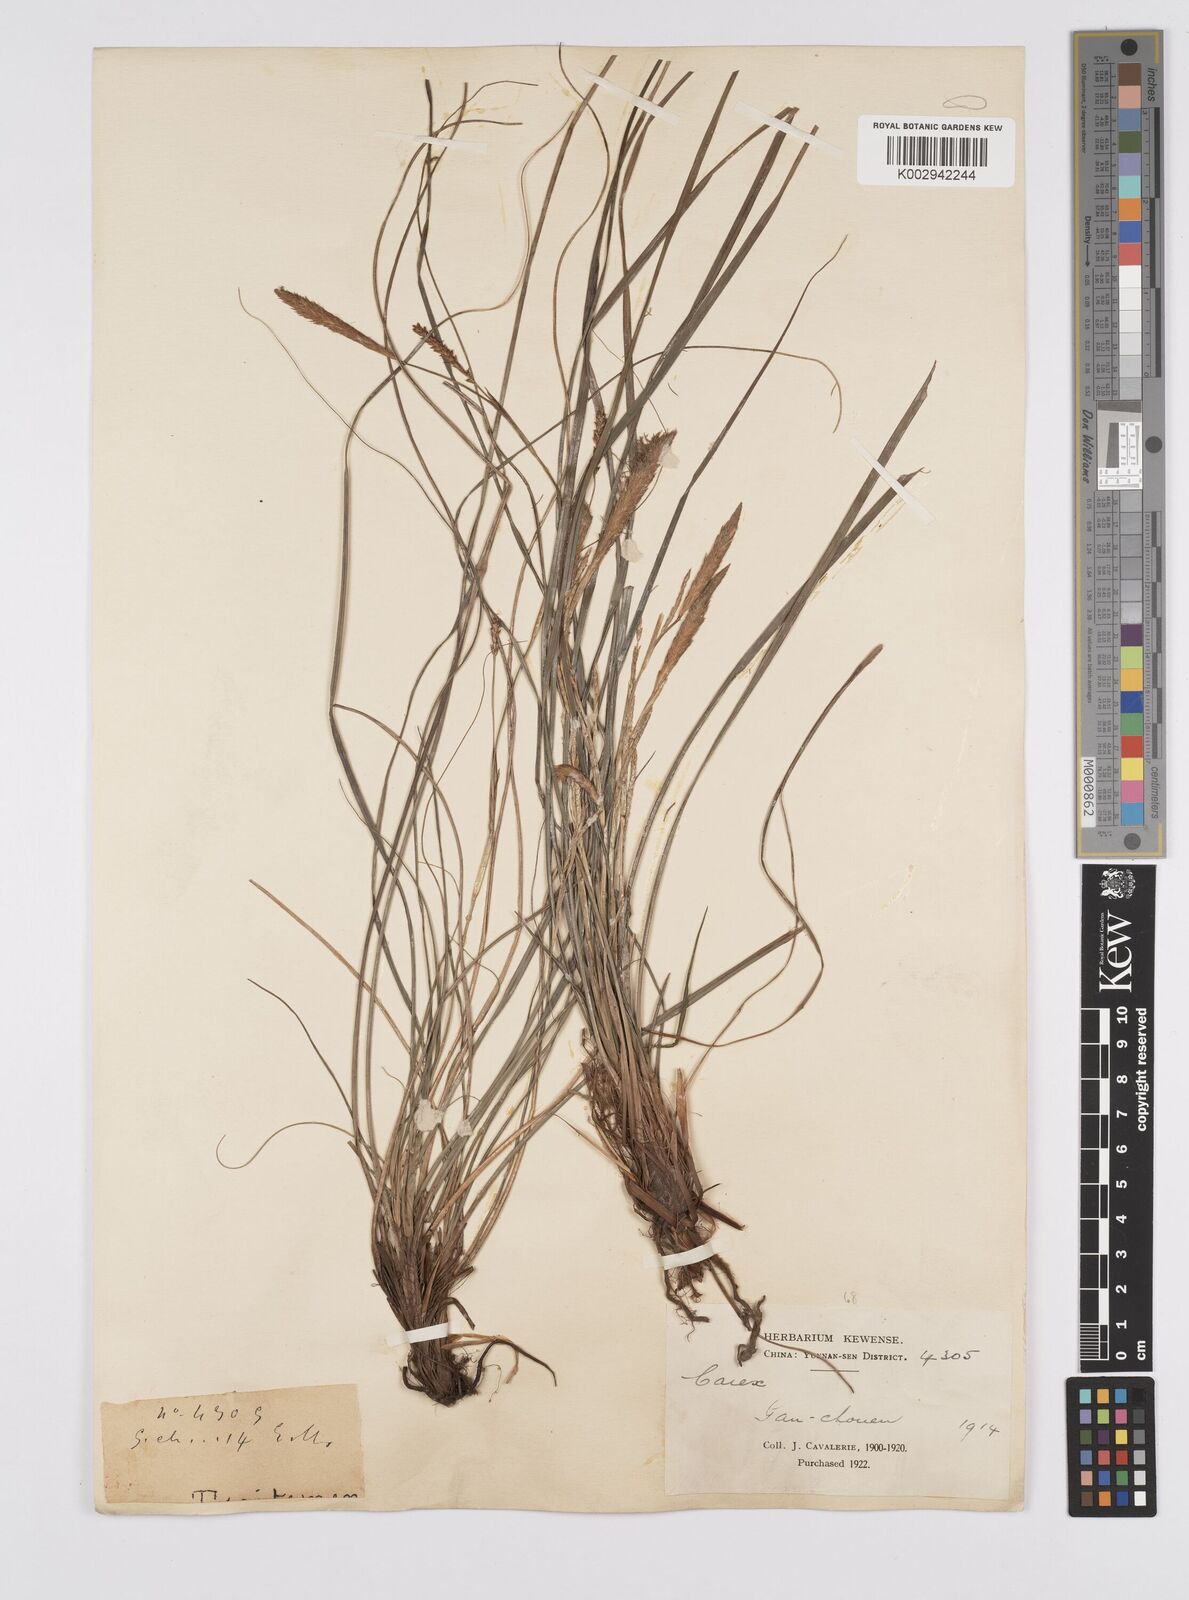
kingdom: Plantae
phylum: Tracheophyta
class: Liliopsida
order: Poales
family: Cyperaceae
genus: Carex
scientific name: Carex morrowii
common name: Japanese sedge
